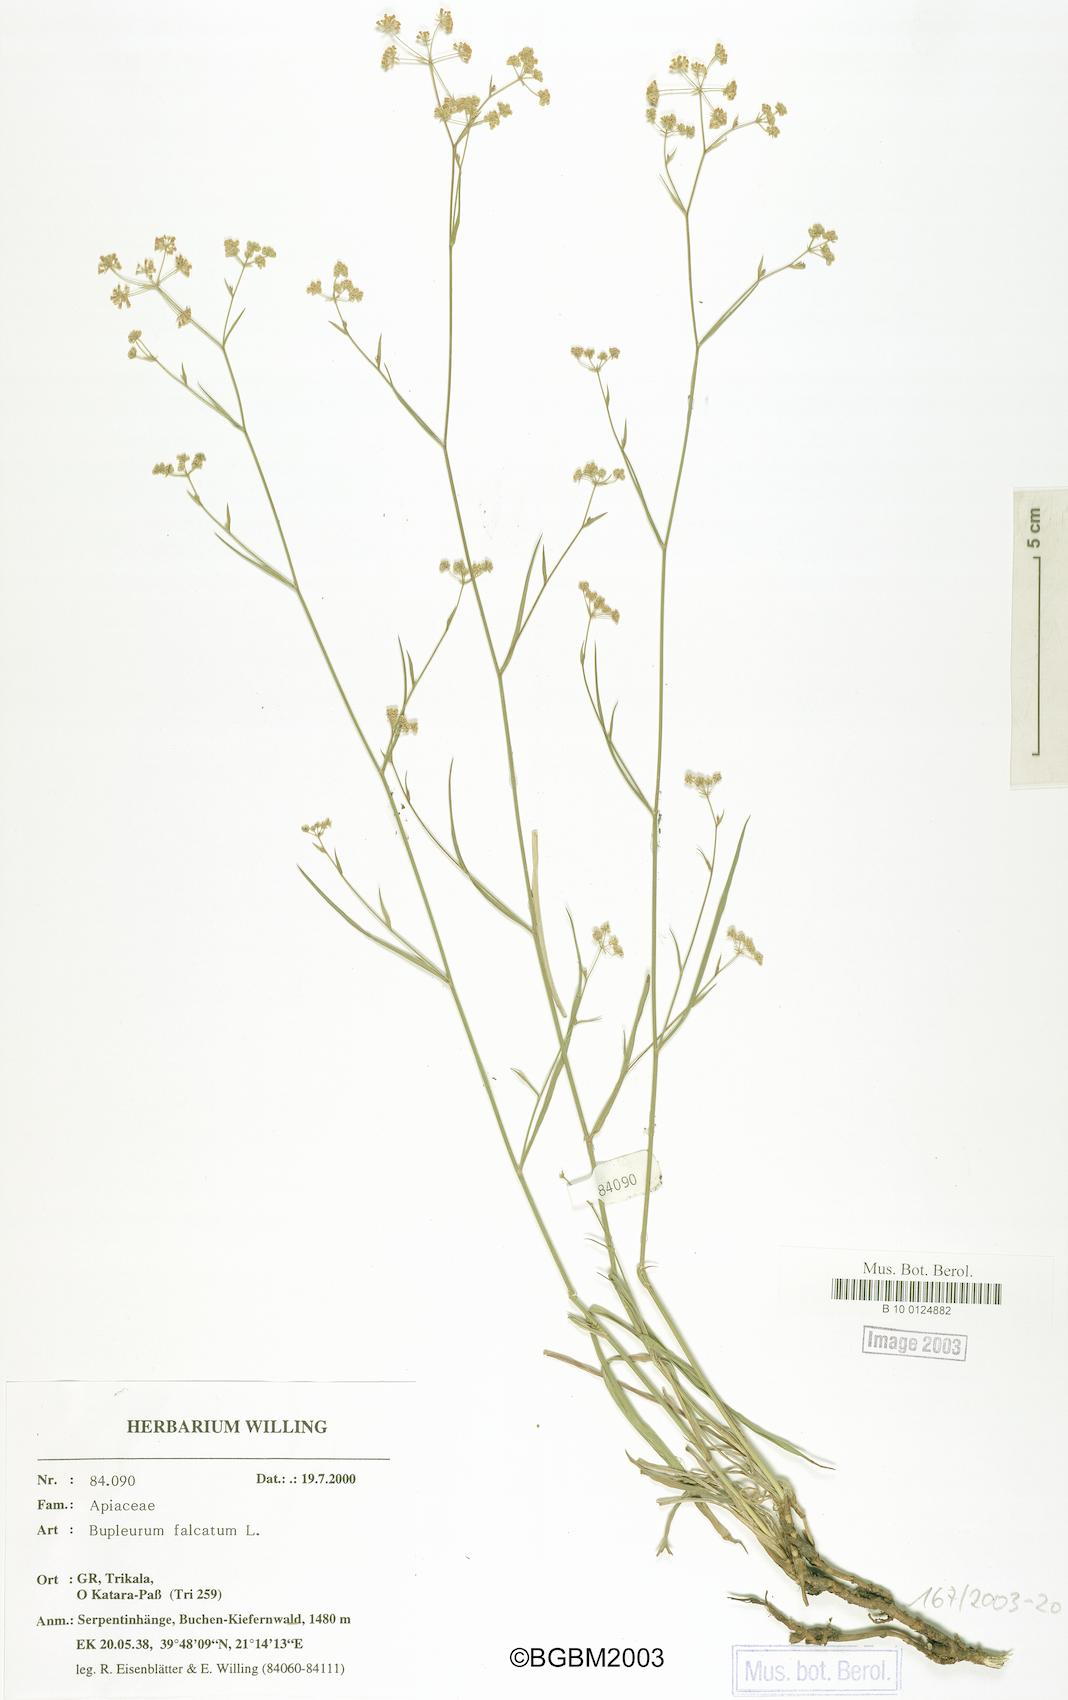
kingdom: Plantae
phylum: Tracheophyta
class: Magnoliopsida
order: Apiales
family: Apiaceae
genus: Bupleurum
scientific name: Bupleurum falcatum
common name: Sickle-leaved hare's-ear
